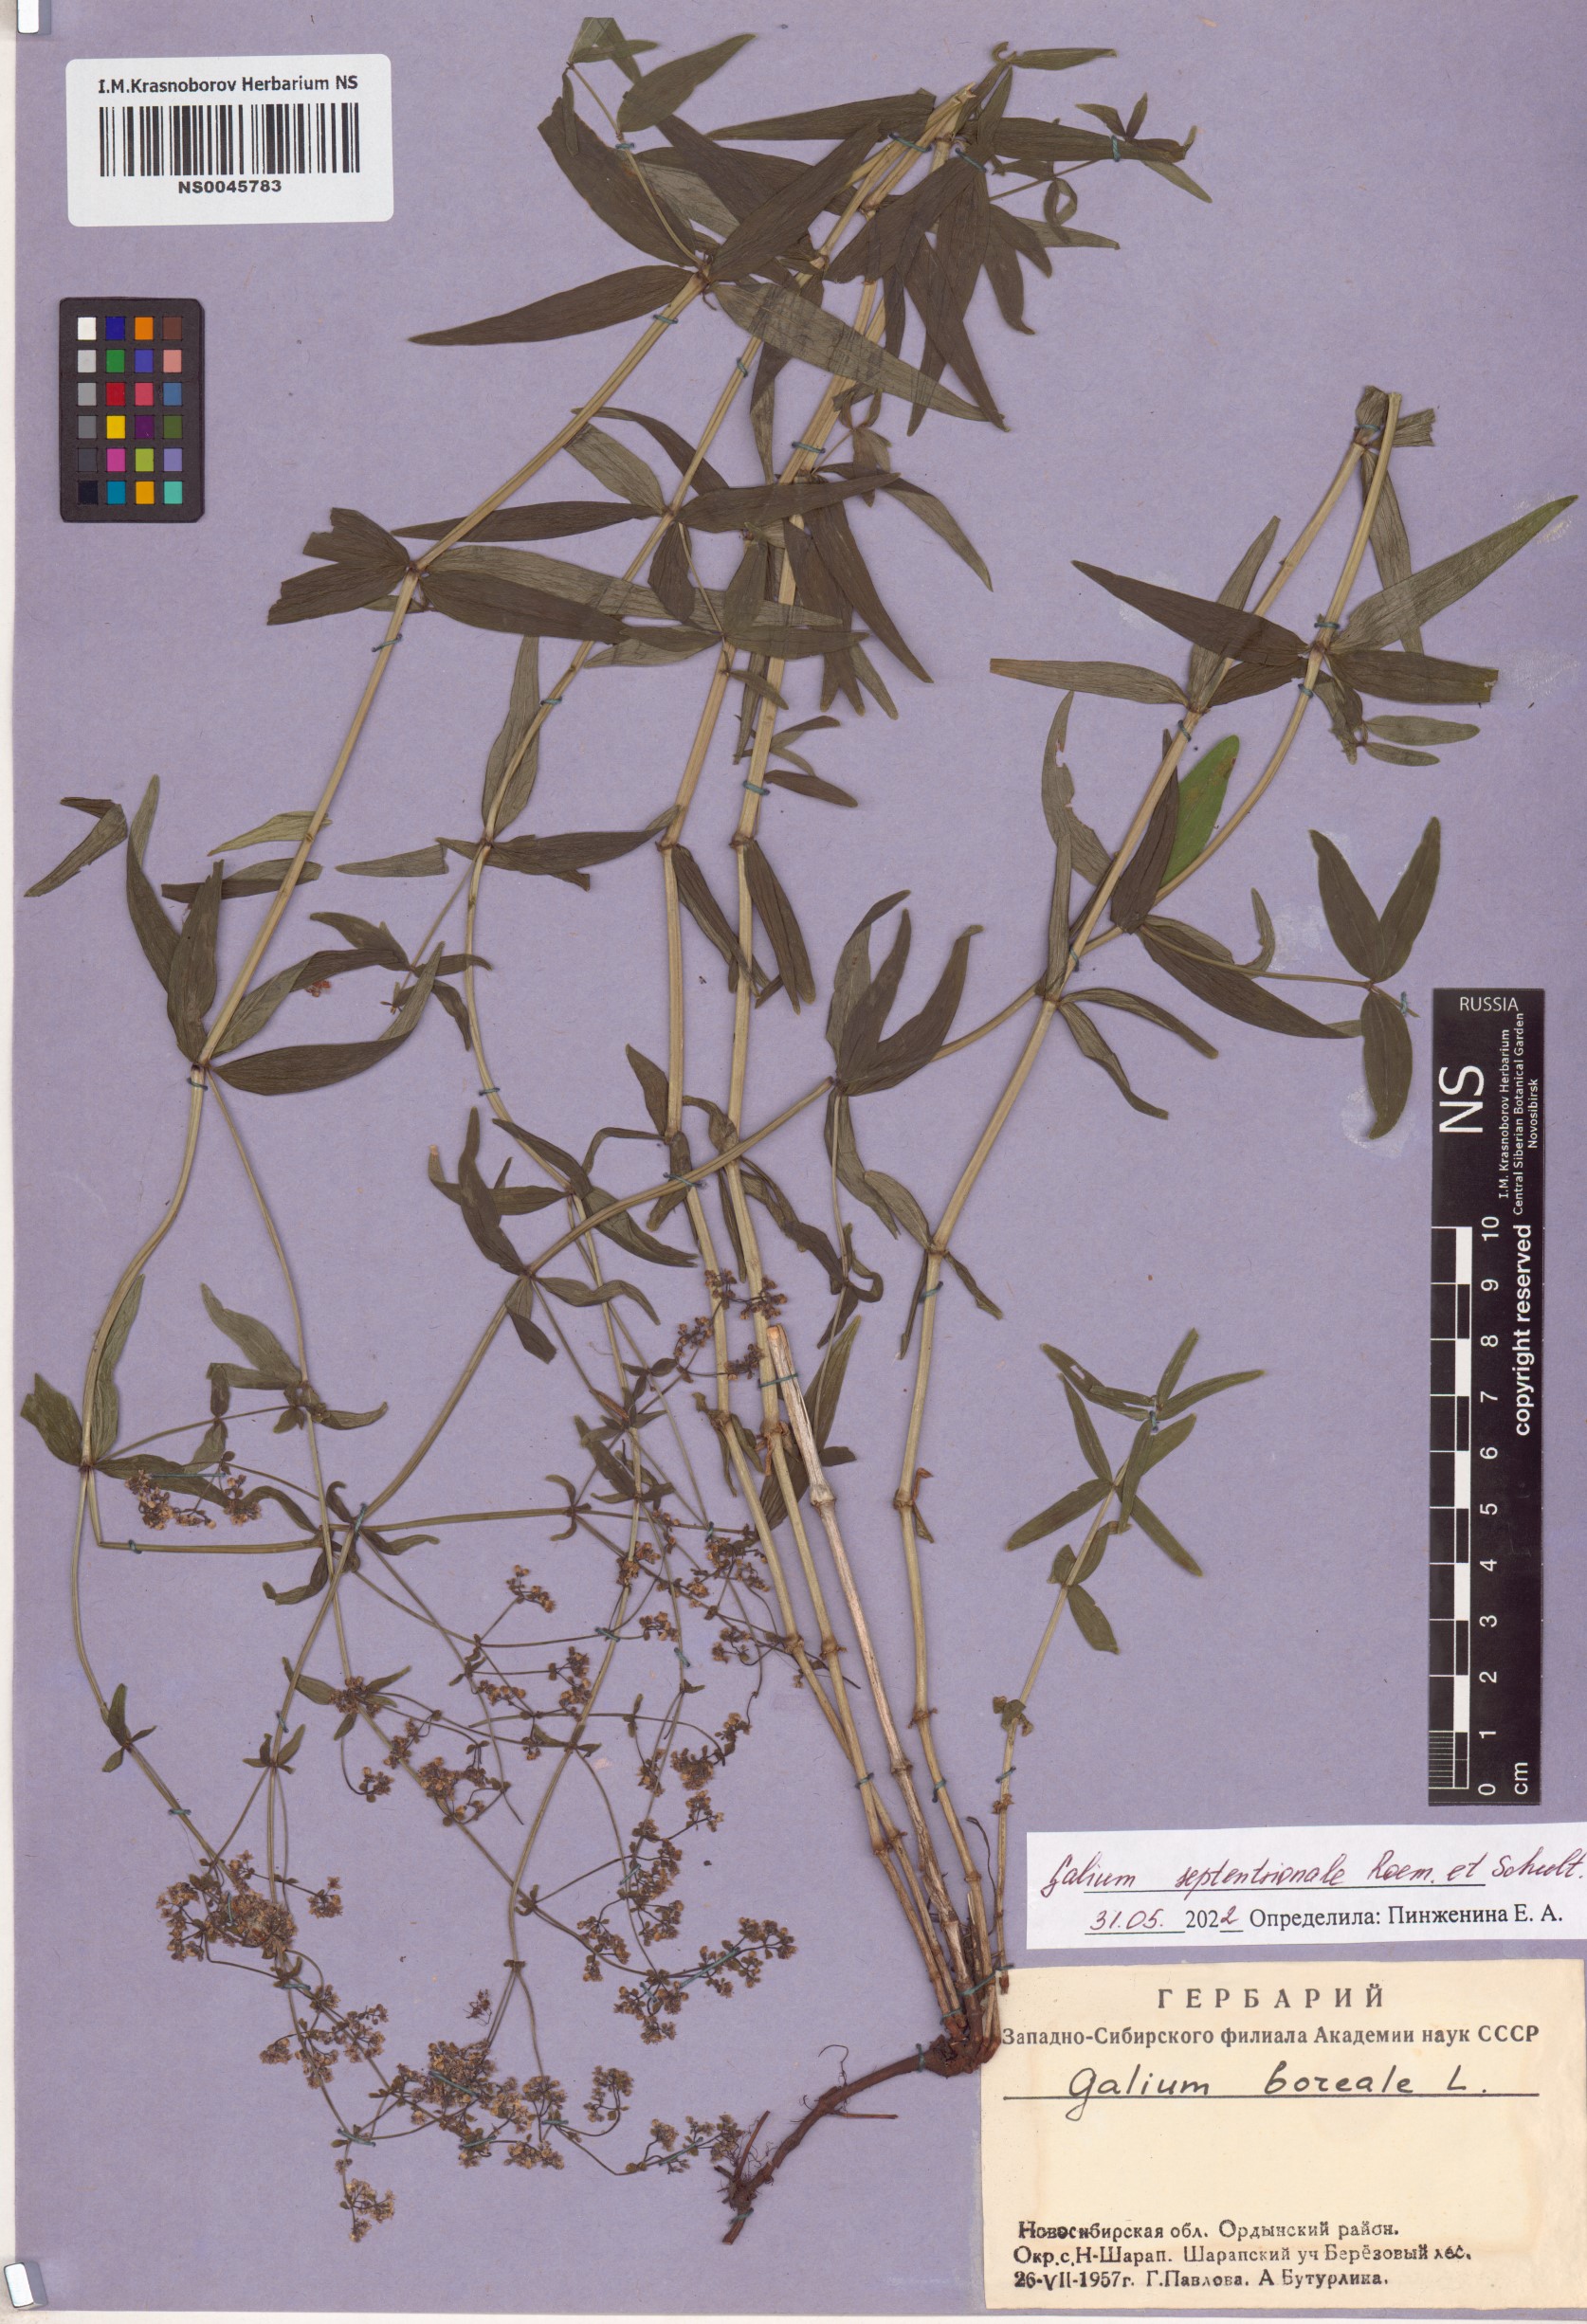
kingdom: Plantae
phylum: Tracheophyta
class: Magnoliopsida
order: Gentianales
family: Rubiaceae
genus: Galium
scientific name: Galium boreale
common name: Northern bedstraw
